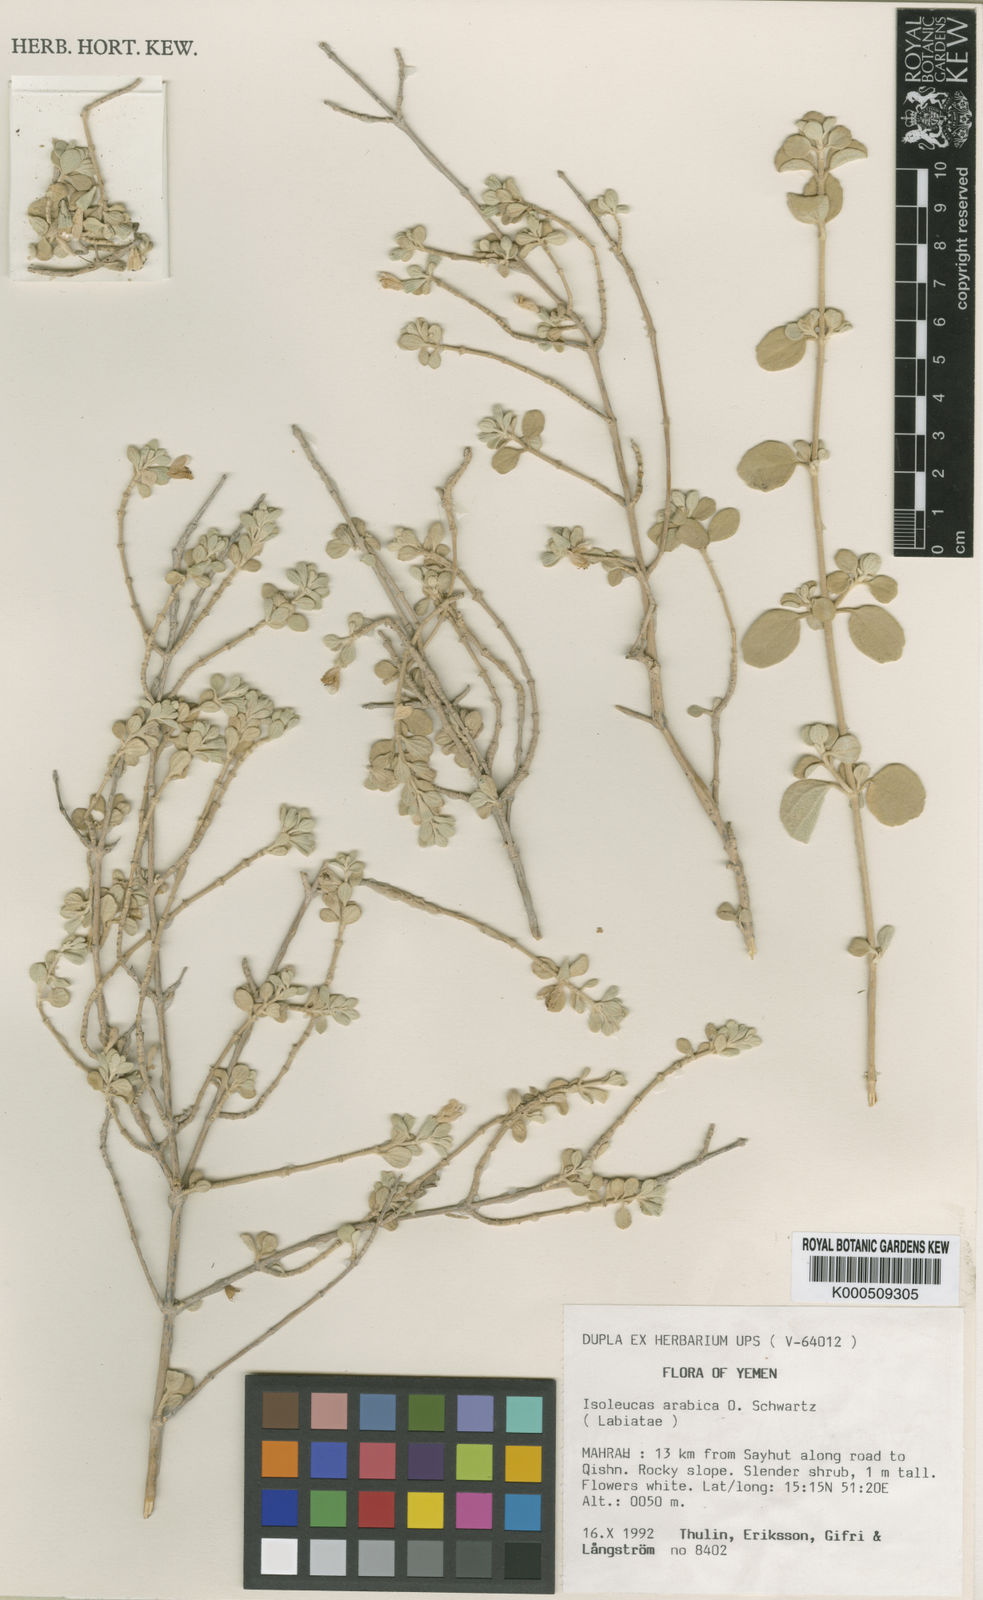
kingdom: Plantae
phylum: Tracheophyta
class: Magnoliopsida
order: Lamiales
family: Lamiaceae
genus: Isoleucas
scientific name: Isoleucas arabica
